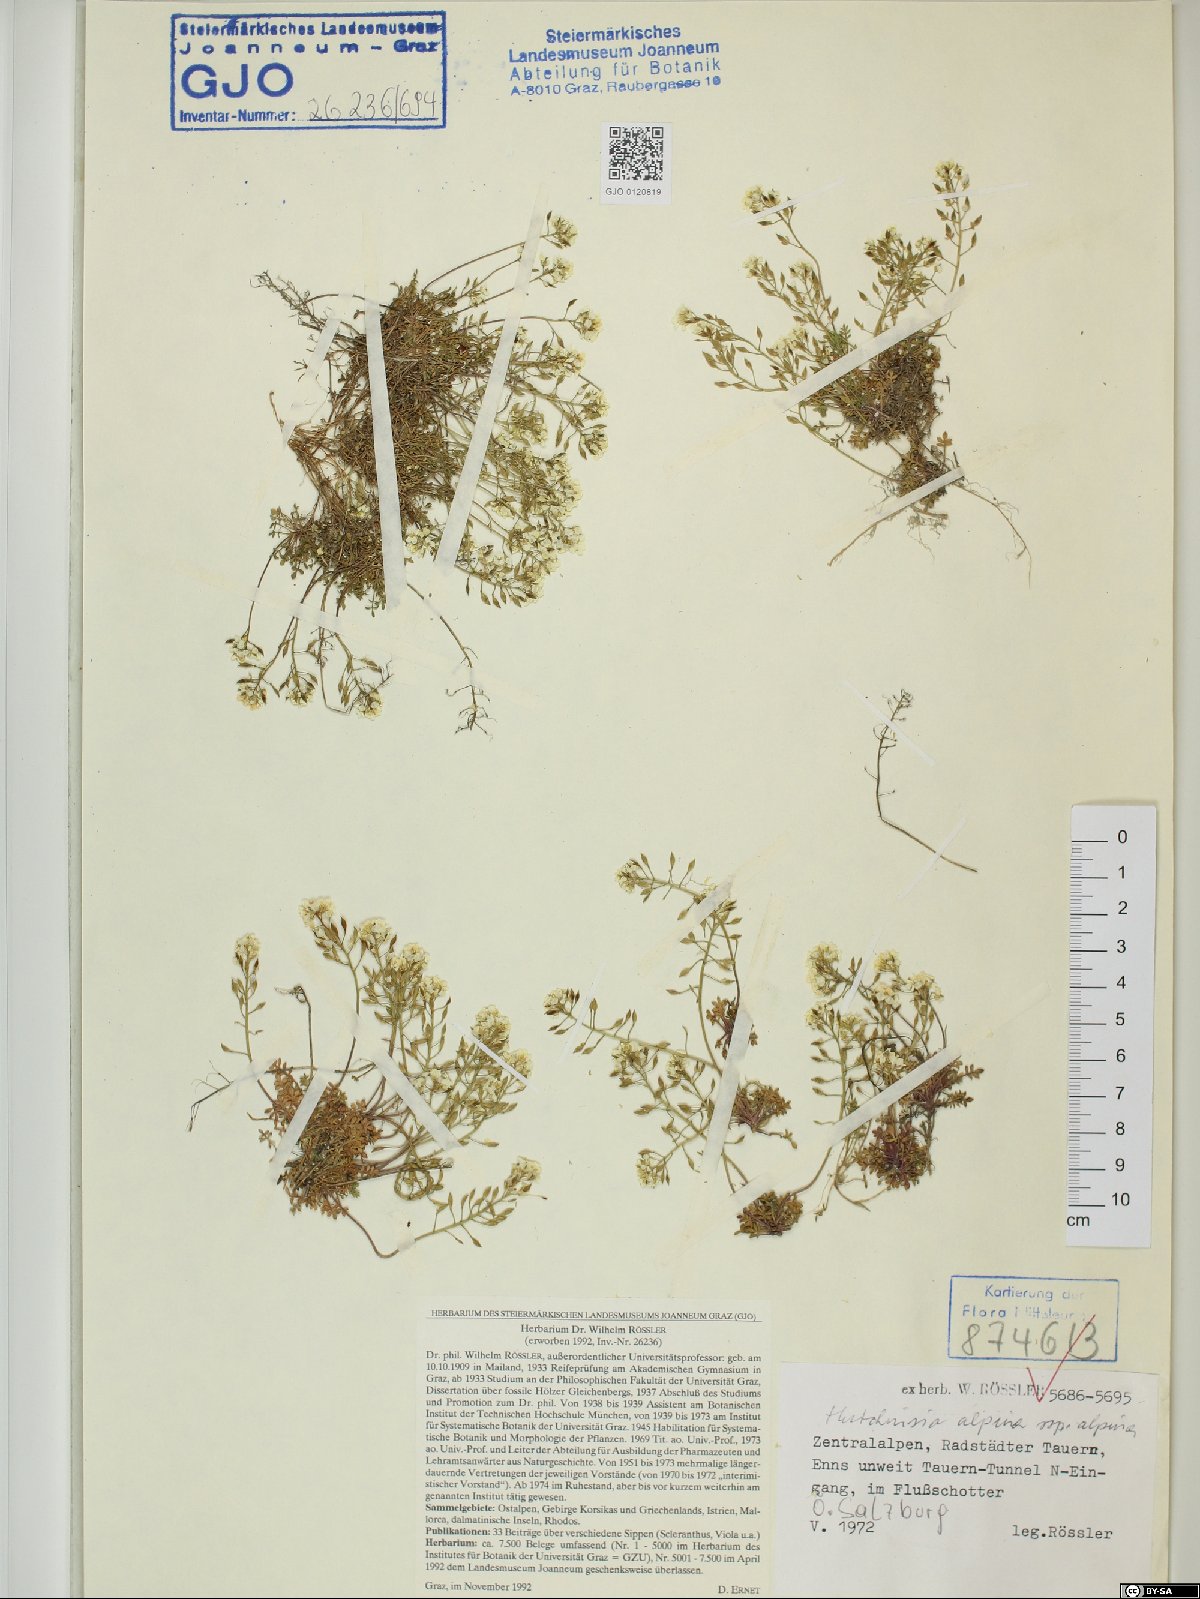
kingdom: Plantae
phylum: Tracheophyta
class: Magnoliopsida
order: Brassicales
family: Brassicaceae
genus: Hornungia
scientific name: Hornungia alpina
